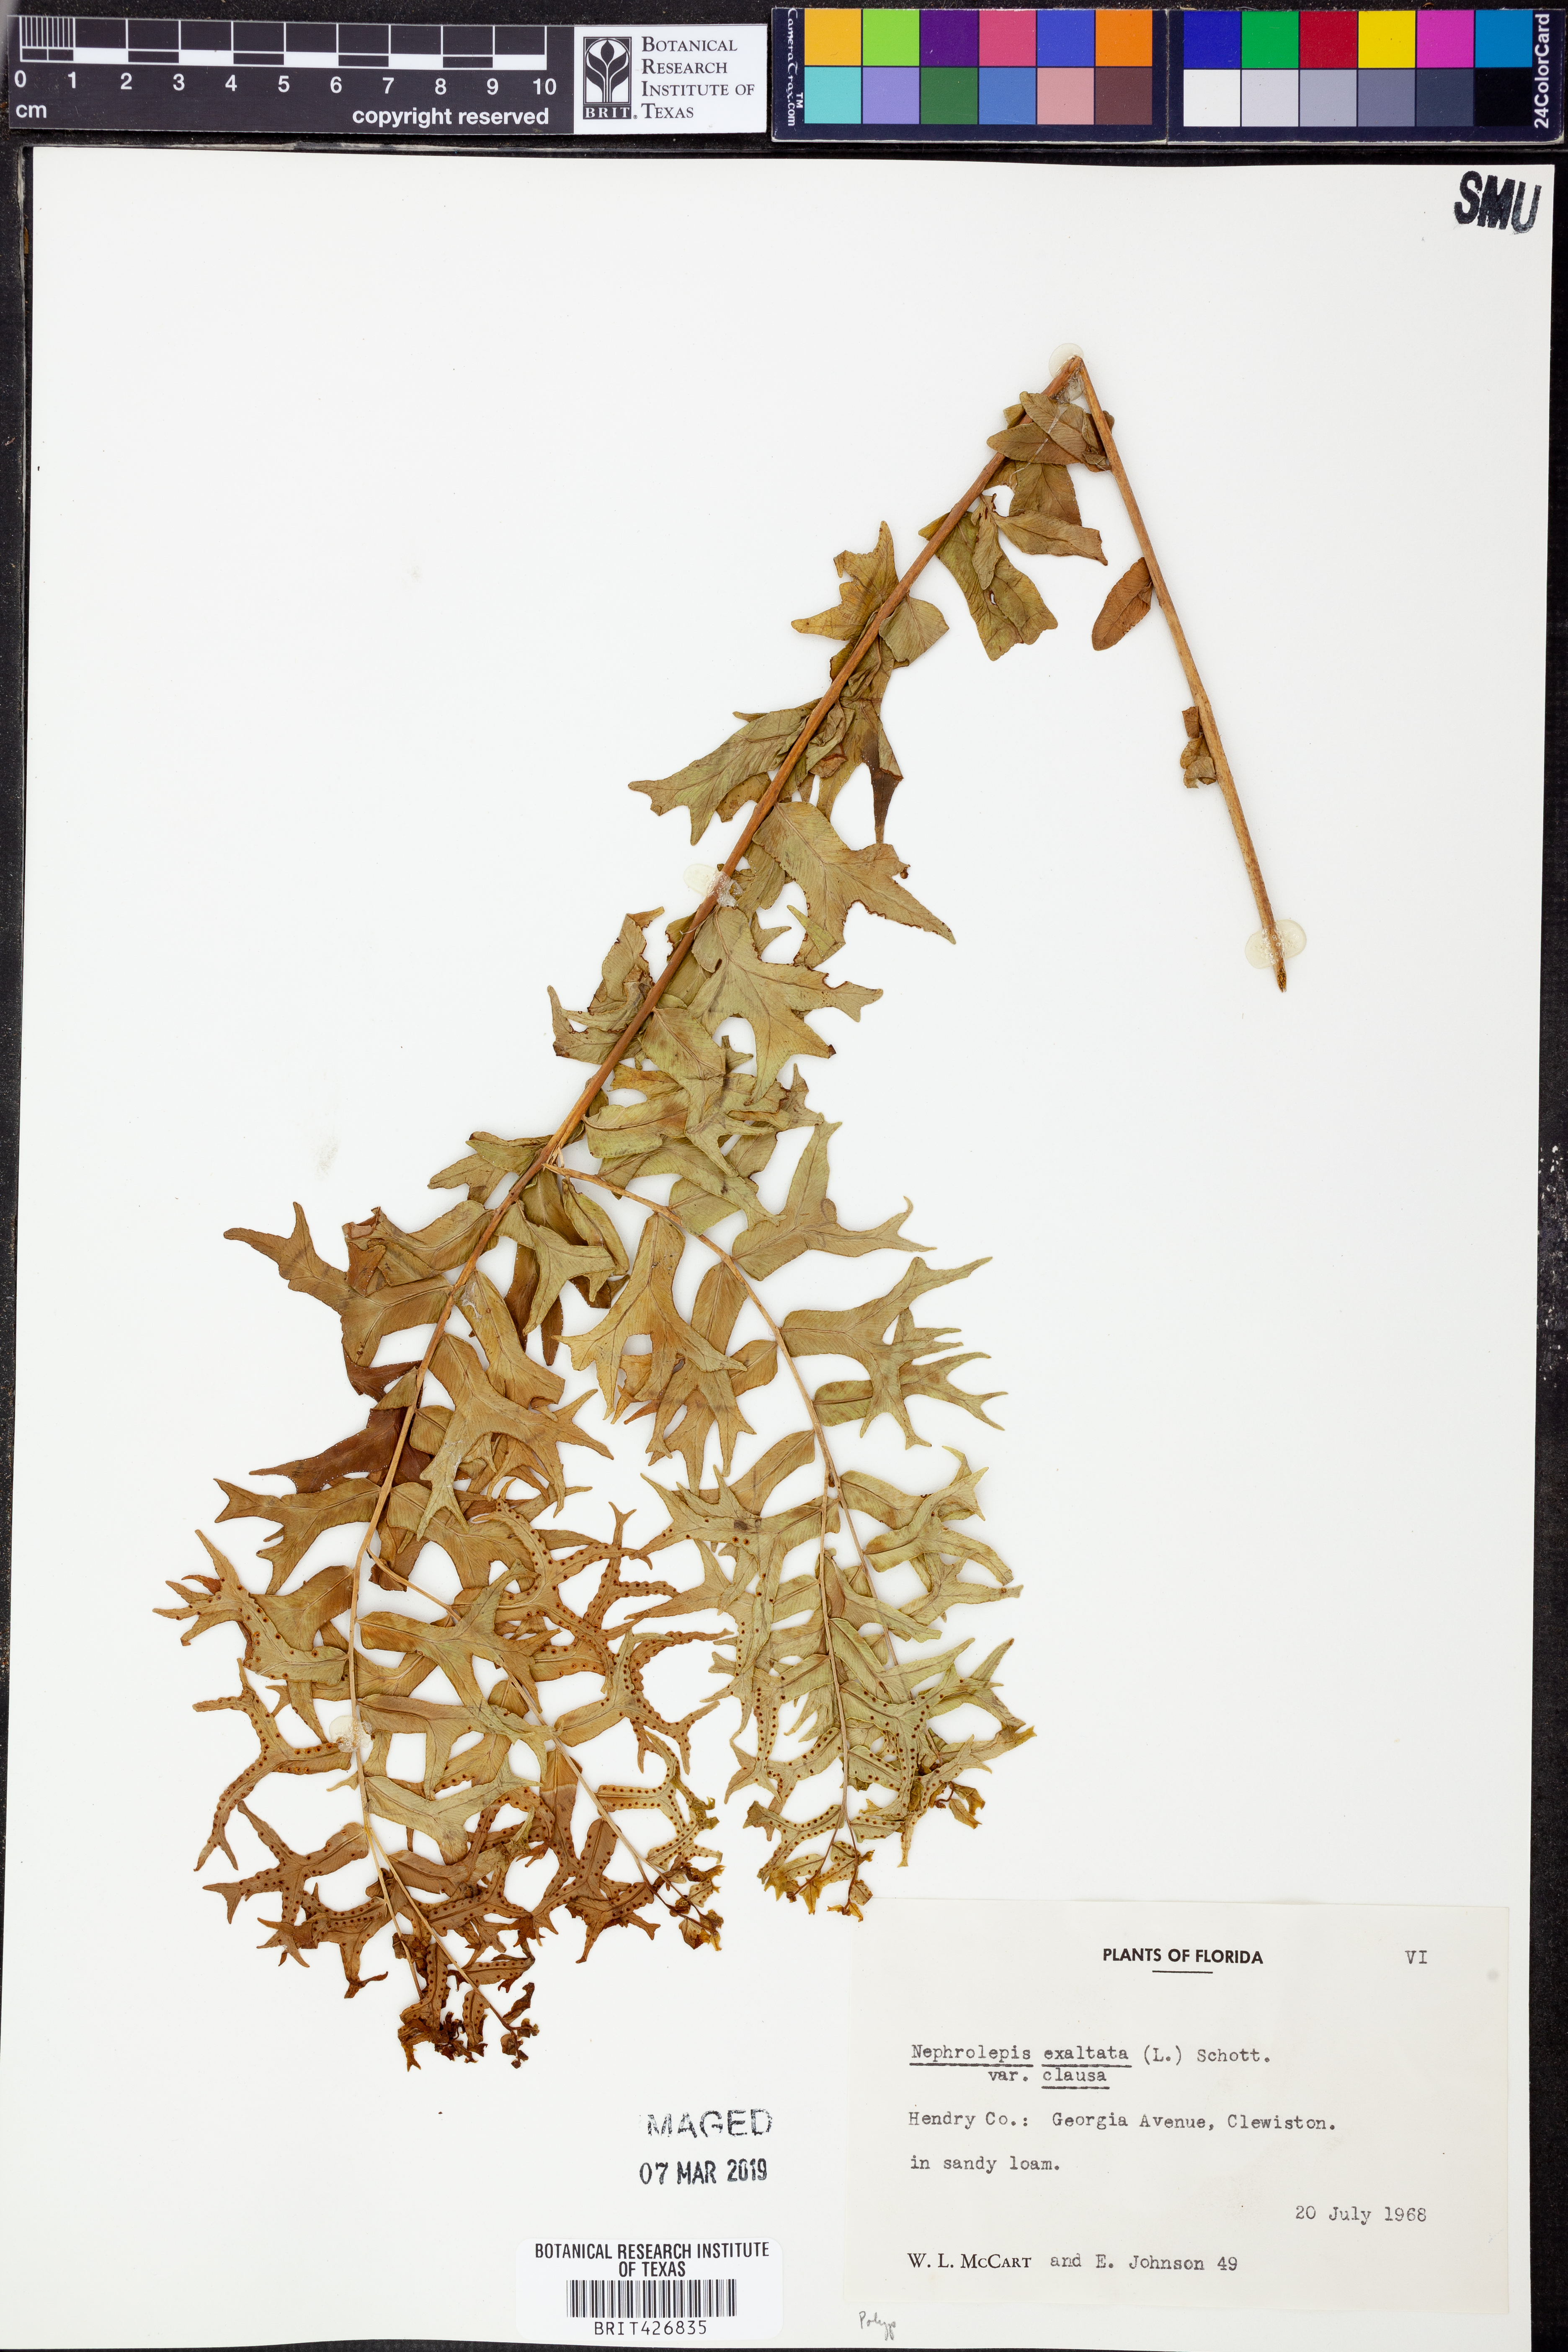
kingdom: Plantae
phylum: Tracheophyta
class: Polypodiopsida
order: Polypodiales
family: Nephrolepidaceae
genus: Nephrolepis
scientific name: Nephrolepis exaltata
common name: Sword fern
